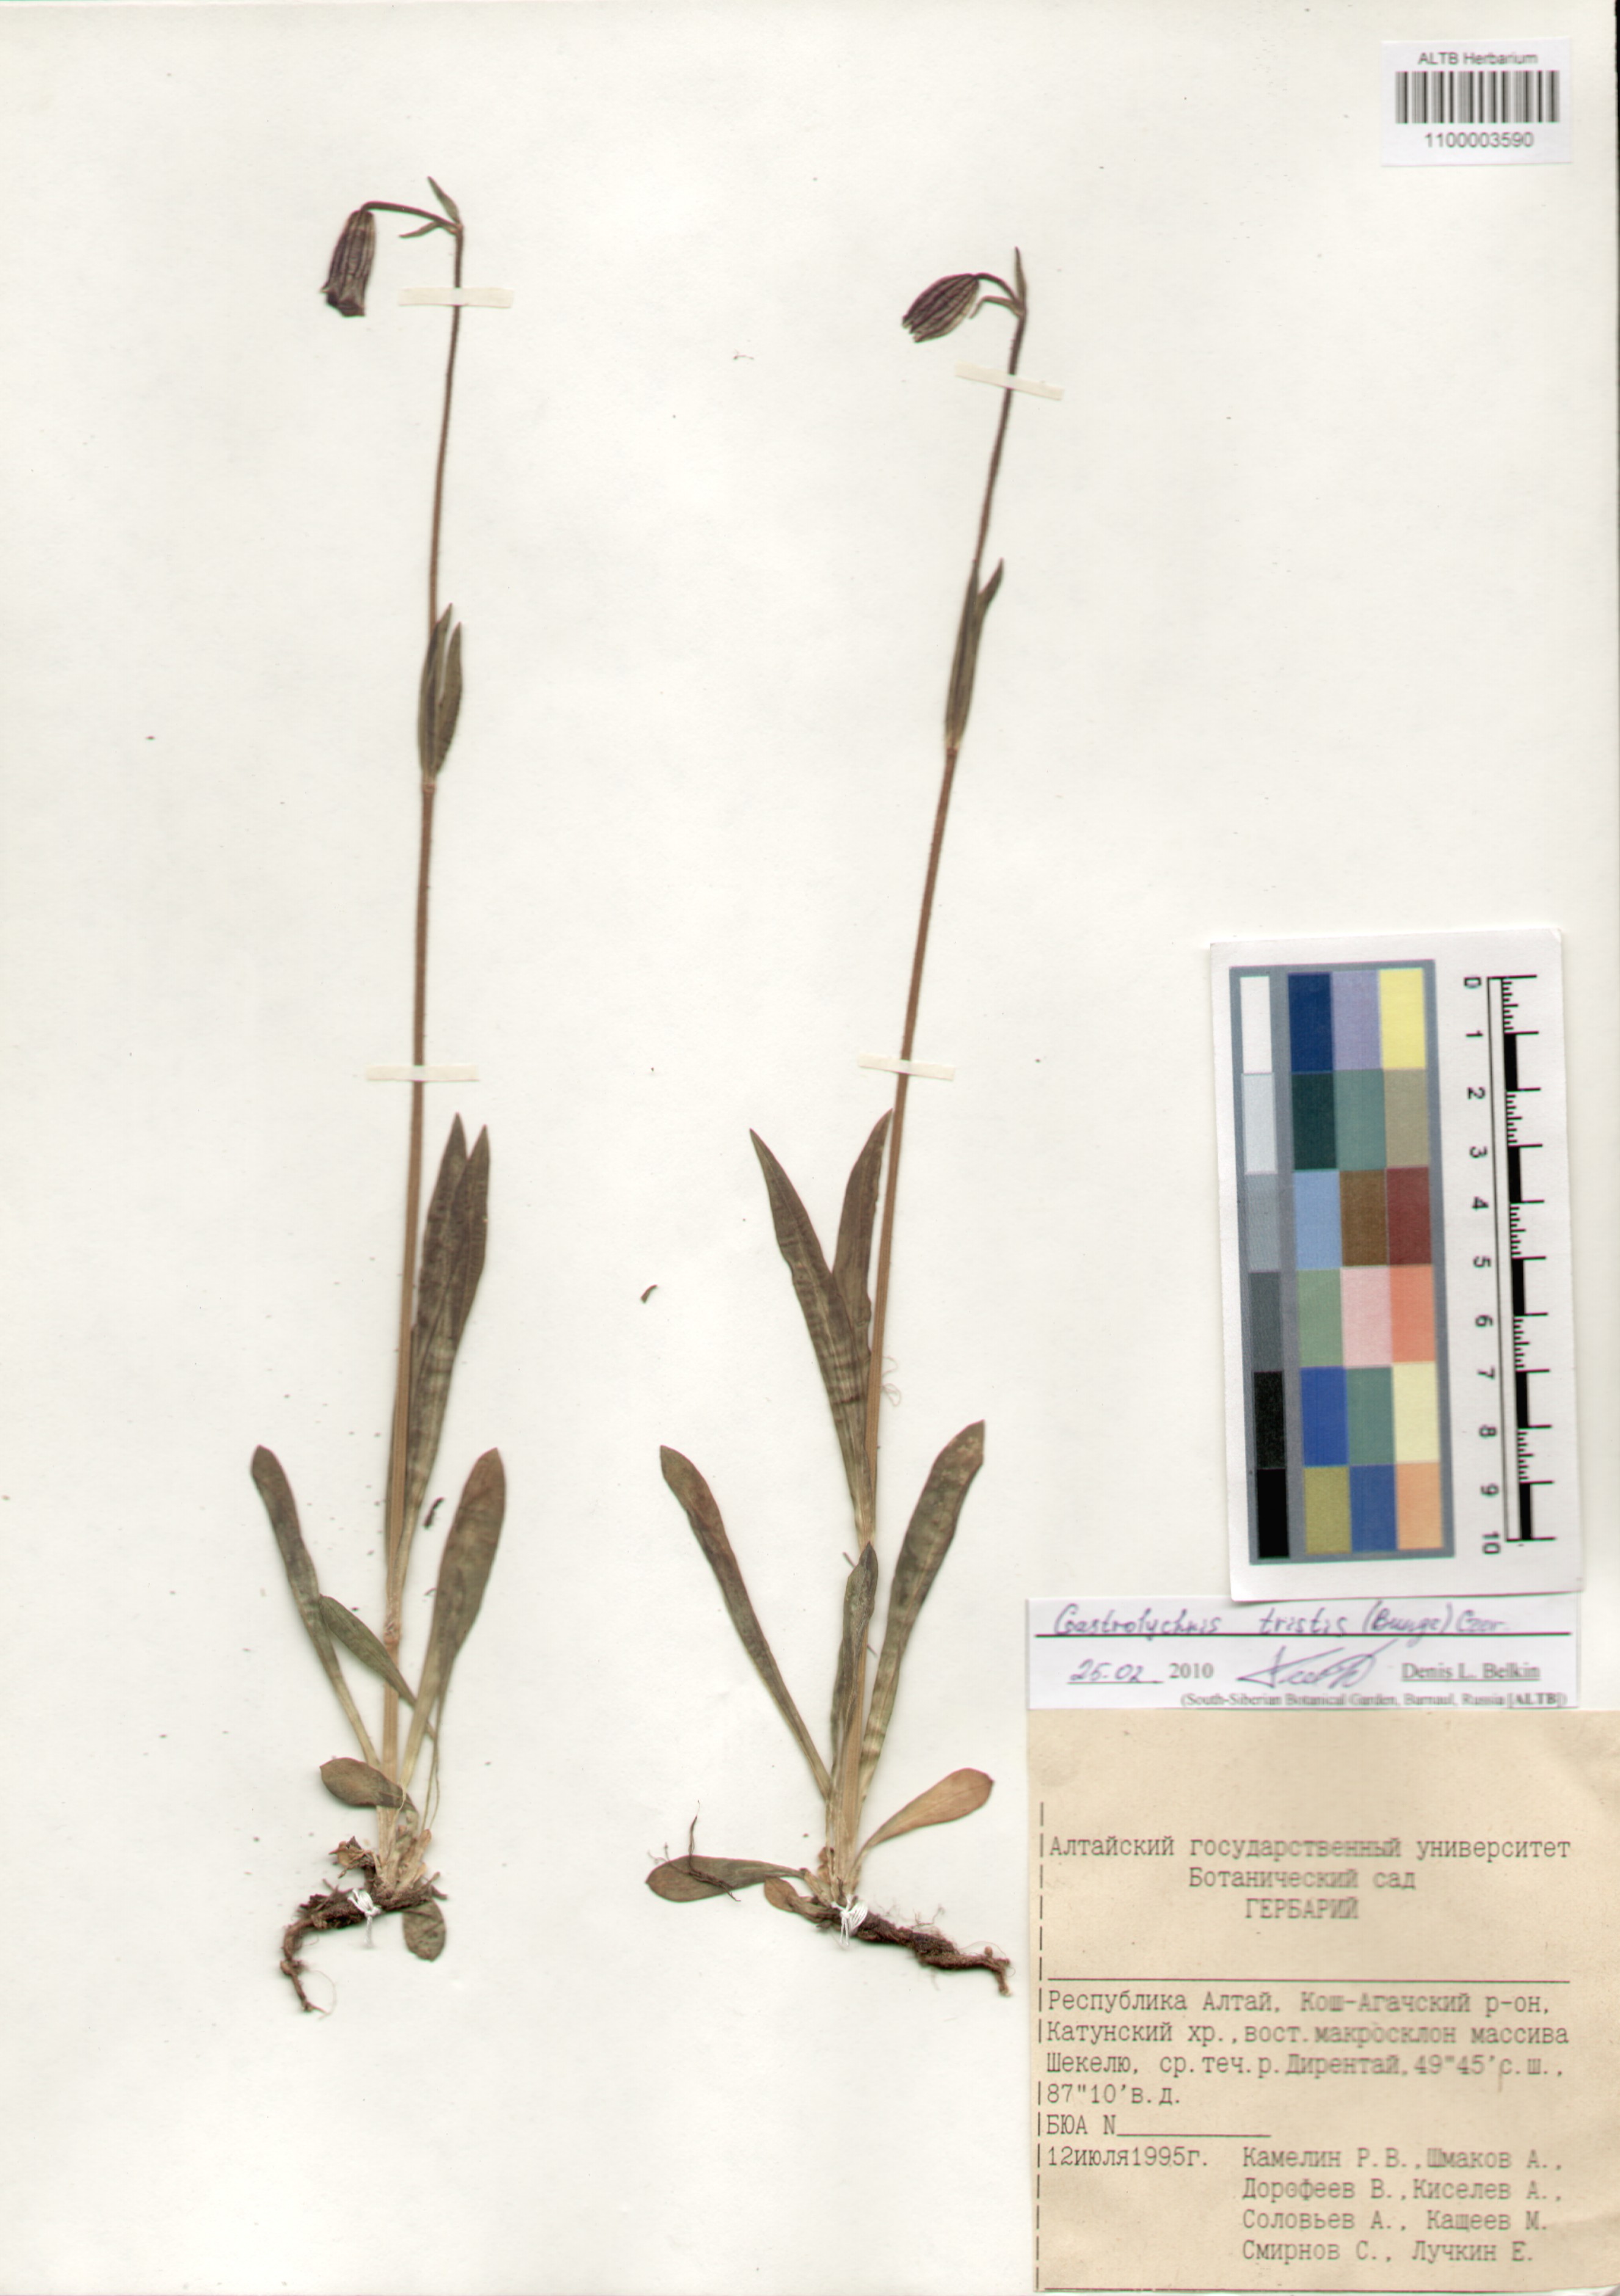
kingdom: Plantae
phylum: Tracheophyta
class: Magnoliopsida
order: Caryophyllales
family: Caryophyllaceae
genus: Silene
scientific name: Silene bungei
